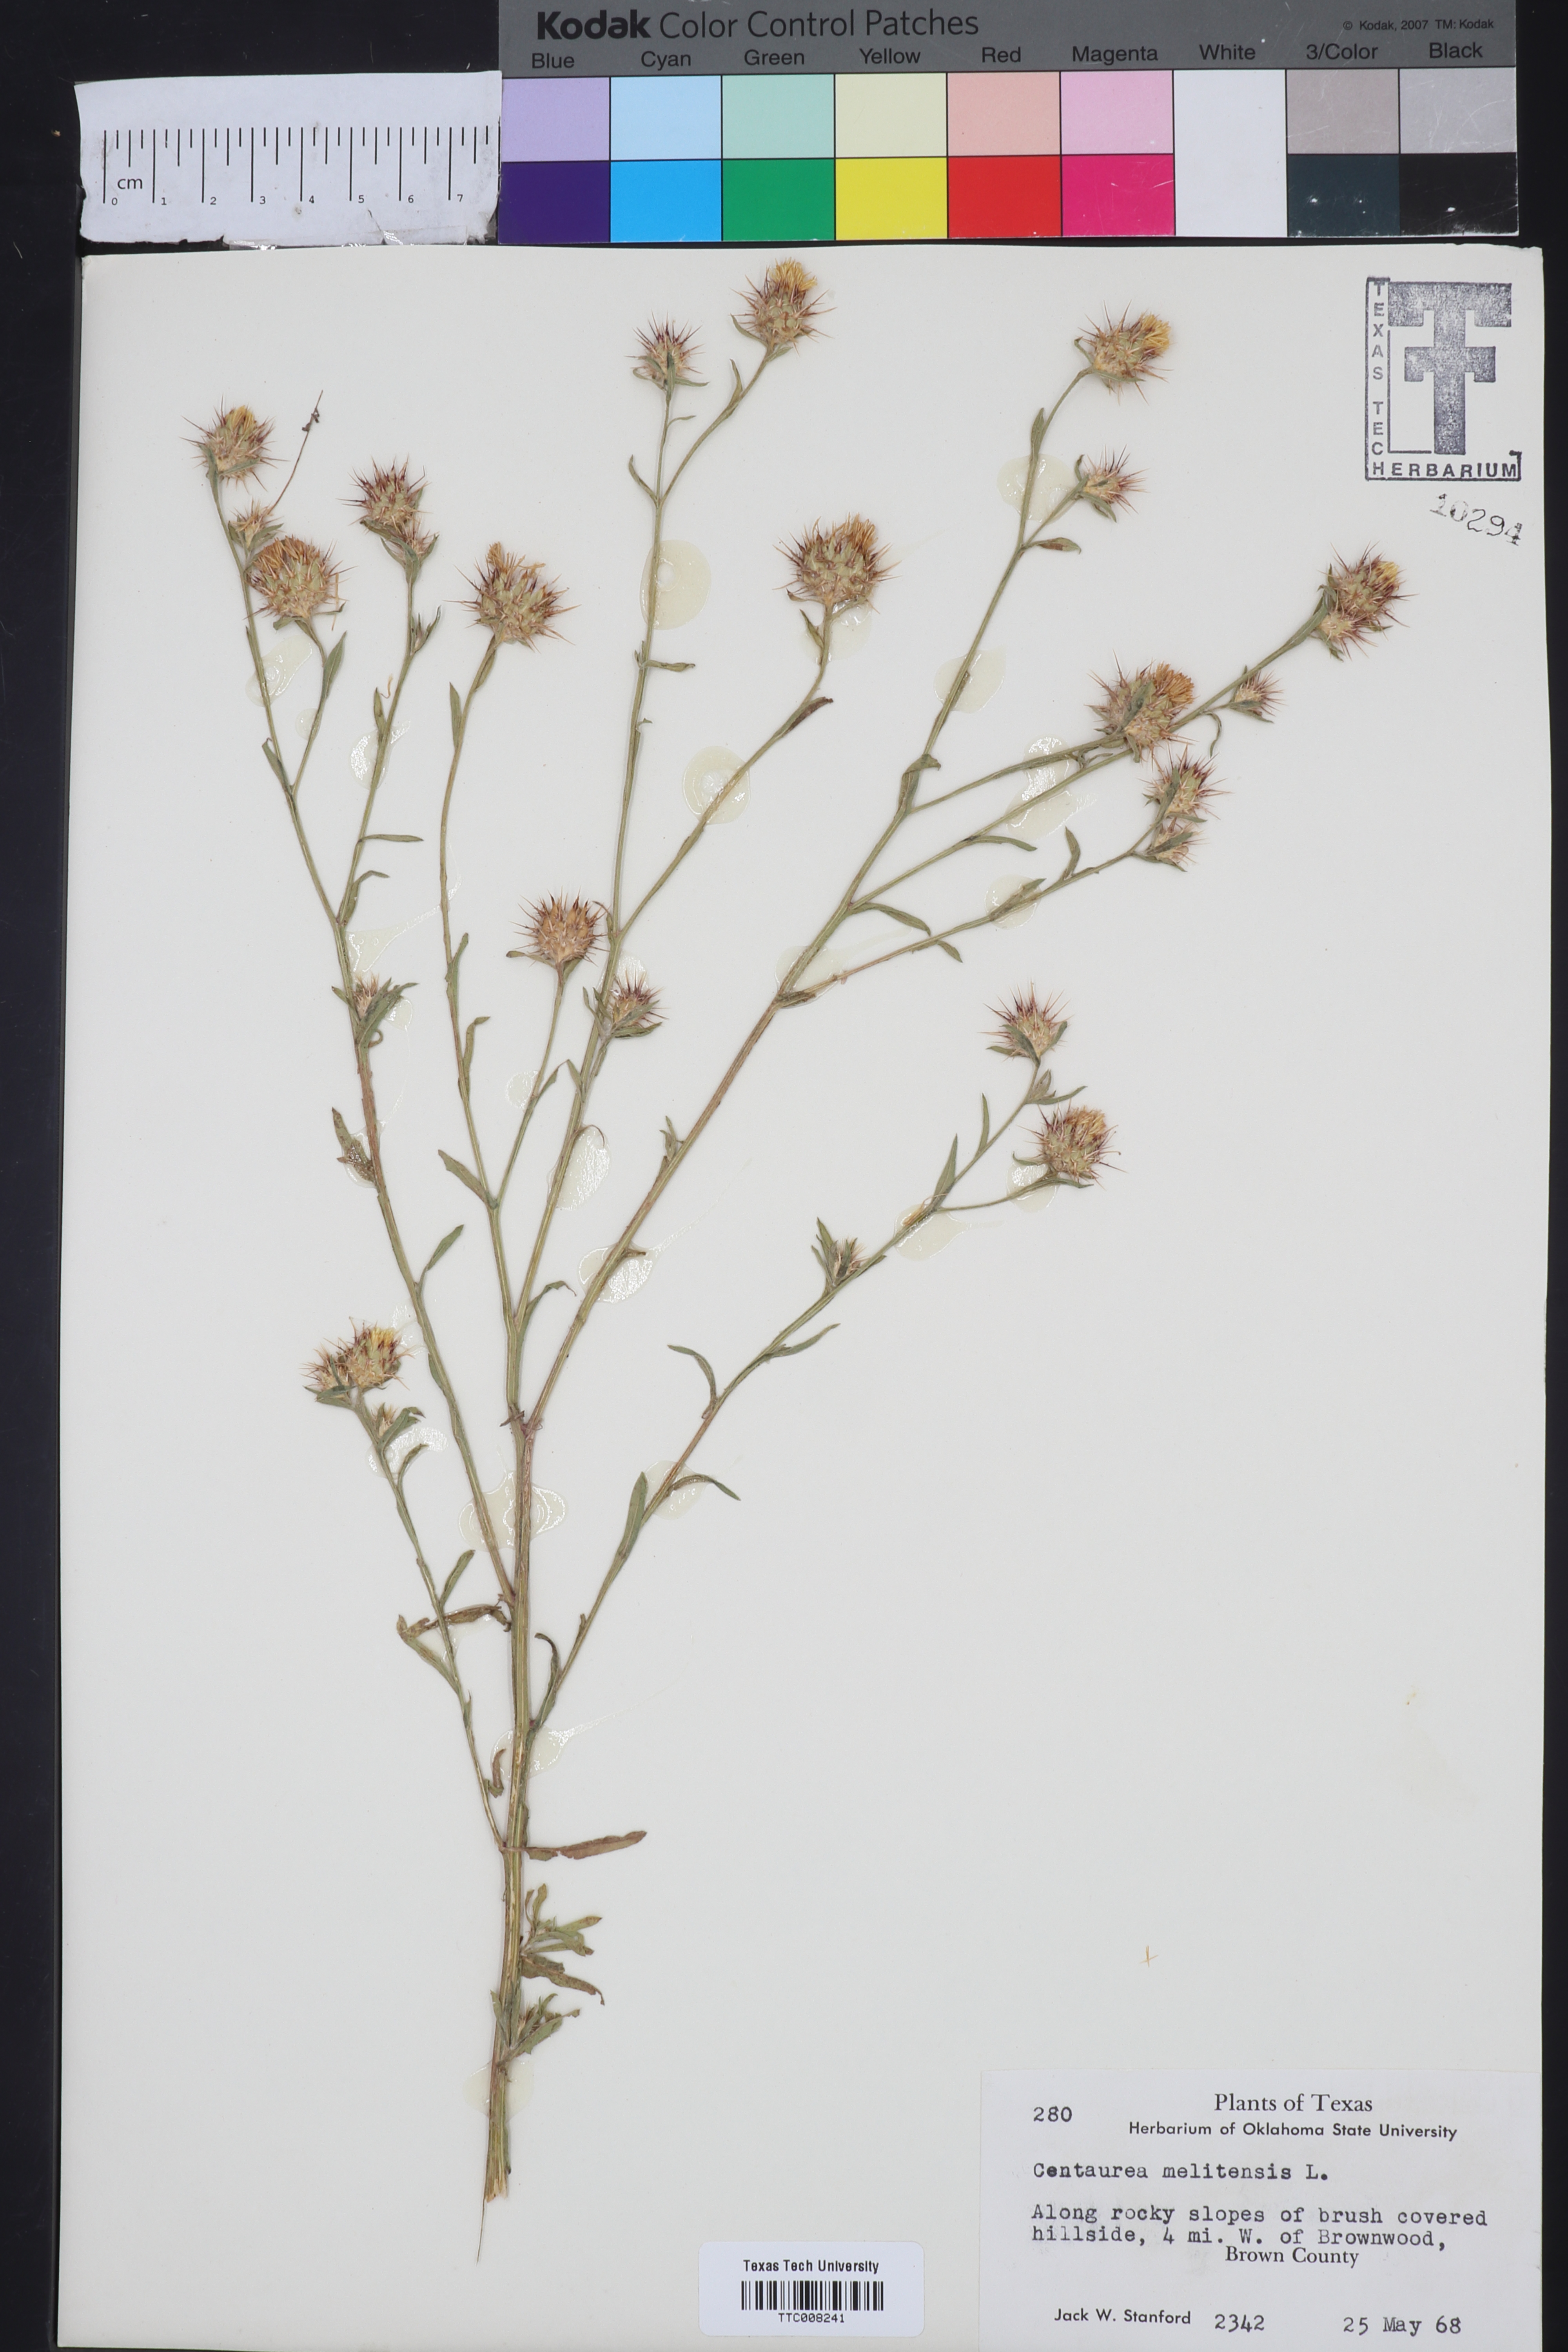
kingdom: Plantae
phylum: Tracheophyta
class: Magnoliopsida
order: Asterales
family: Asteraceae
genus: Centaurea
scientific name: Centaurea melitensis
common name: Maltese star-thistle
